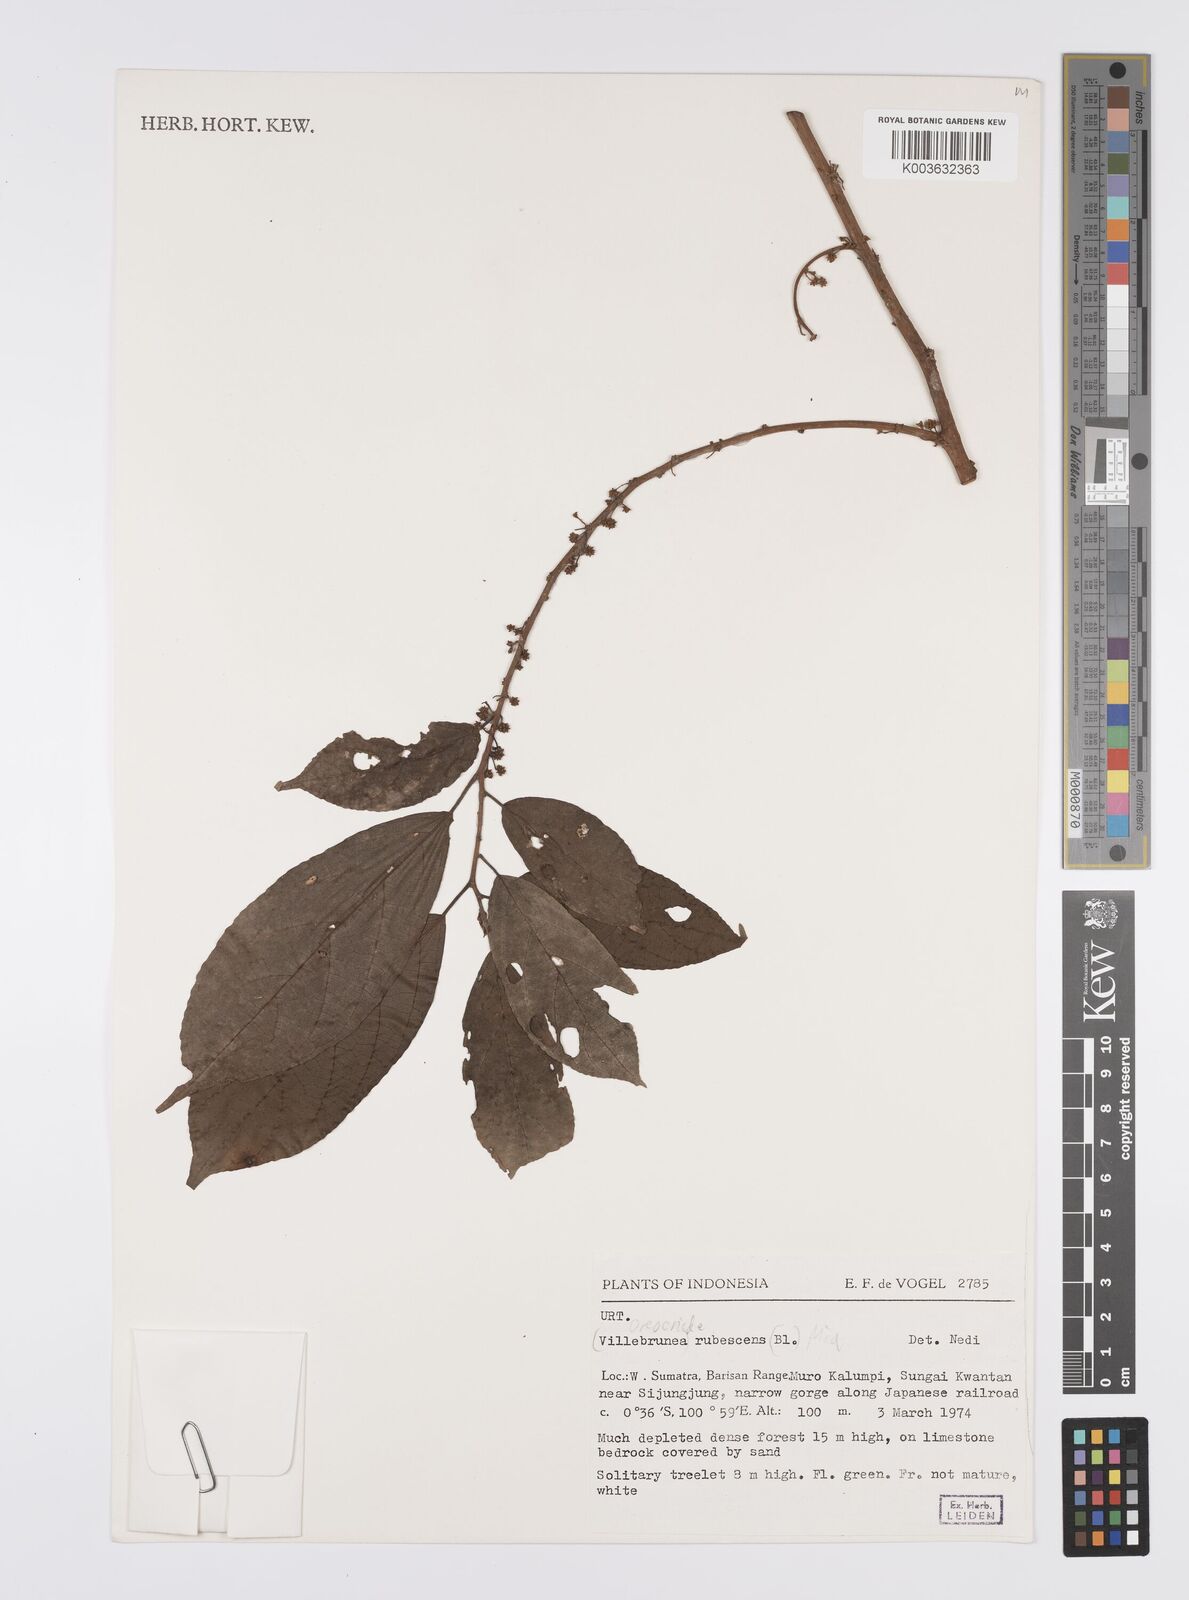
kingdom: Plantae
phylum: Tracheophyta
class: Magnoliopsida
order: Rosales
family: Urticaceae
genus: Oreocnide
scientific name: Oreocnide rubescens
